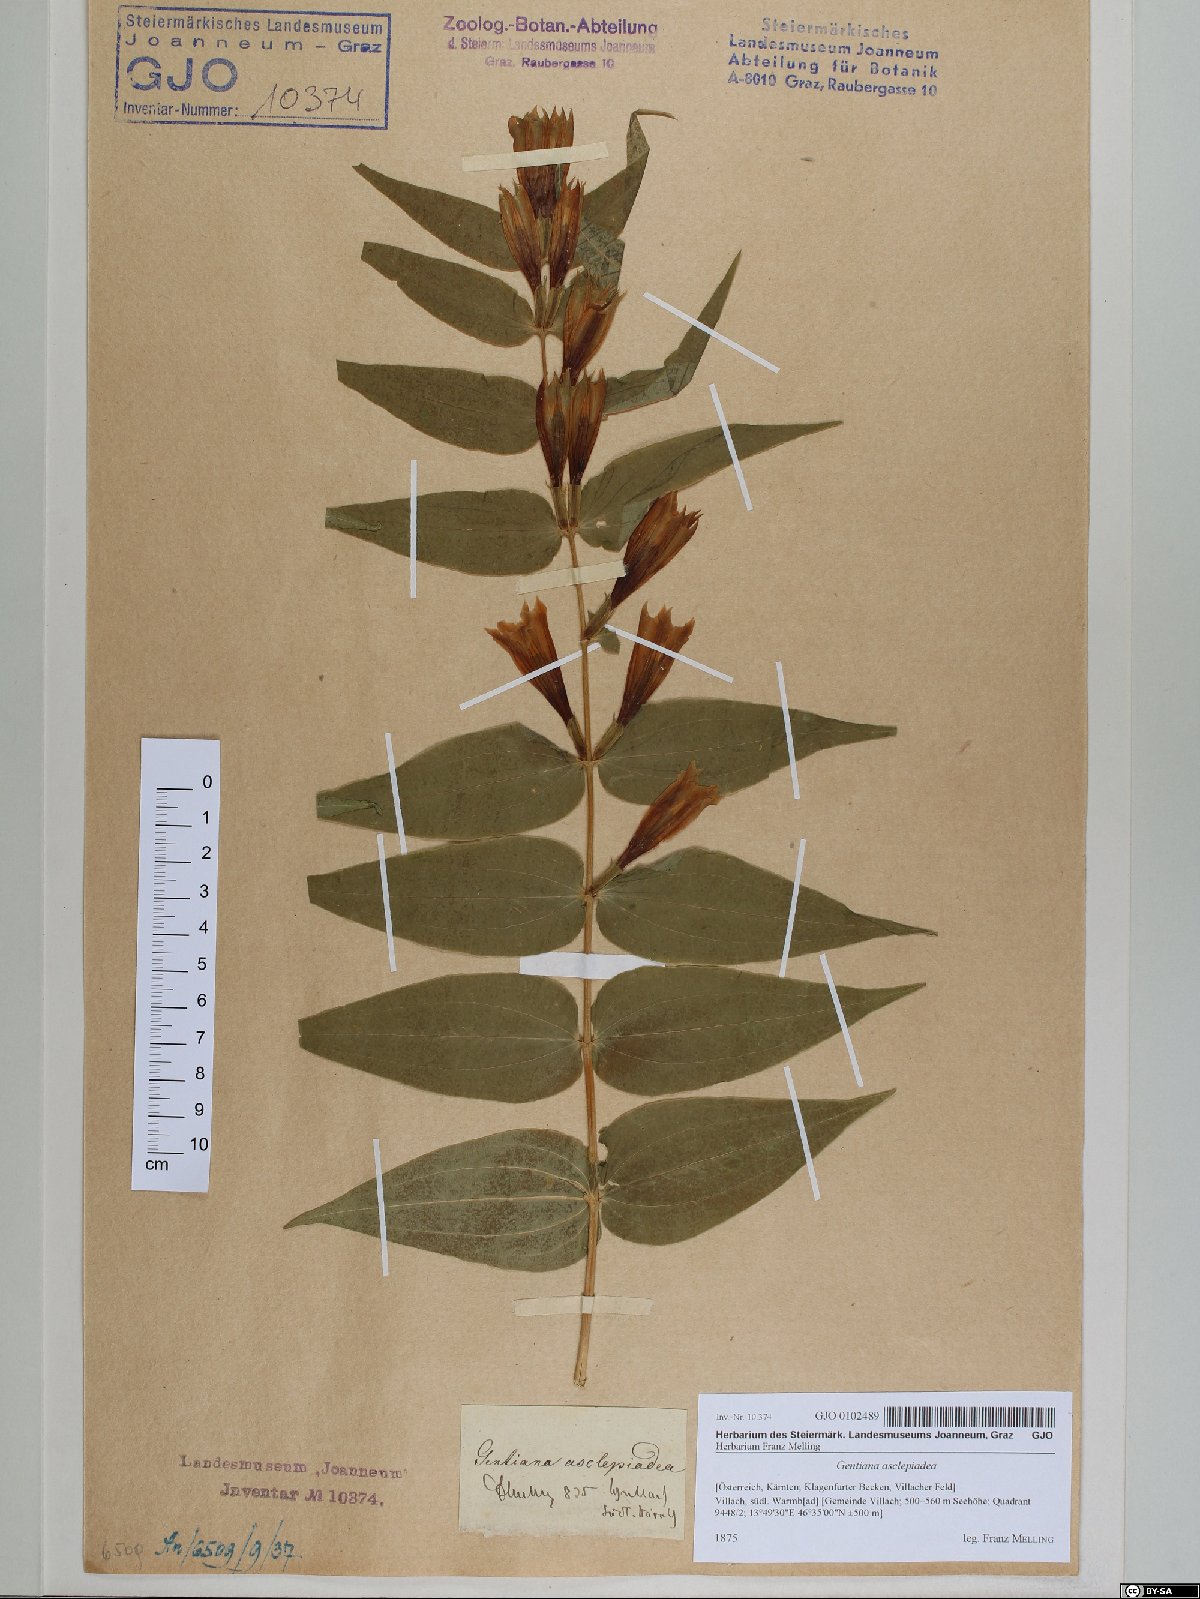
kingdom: Plantae
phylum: Tracheophyta
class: Magnoliopsida
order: Gentianales
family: Gentianaceae
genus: Gentiana
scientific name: Gentiana asclepiadea
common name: Willow gentian
